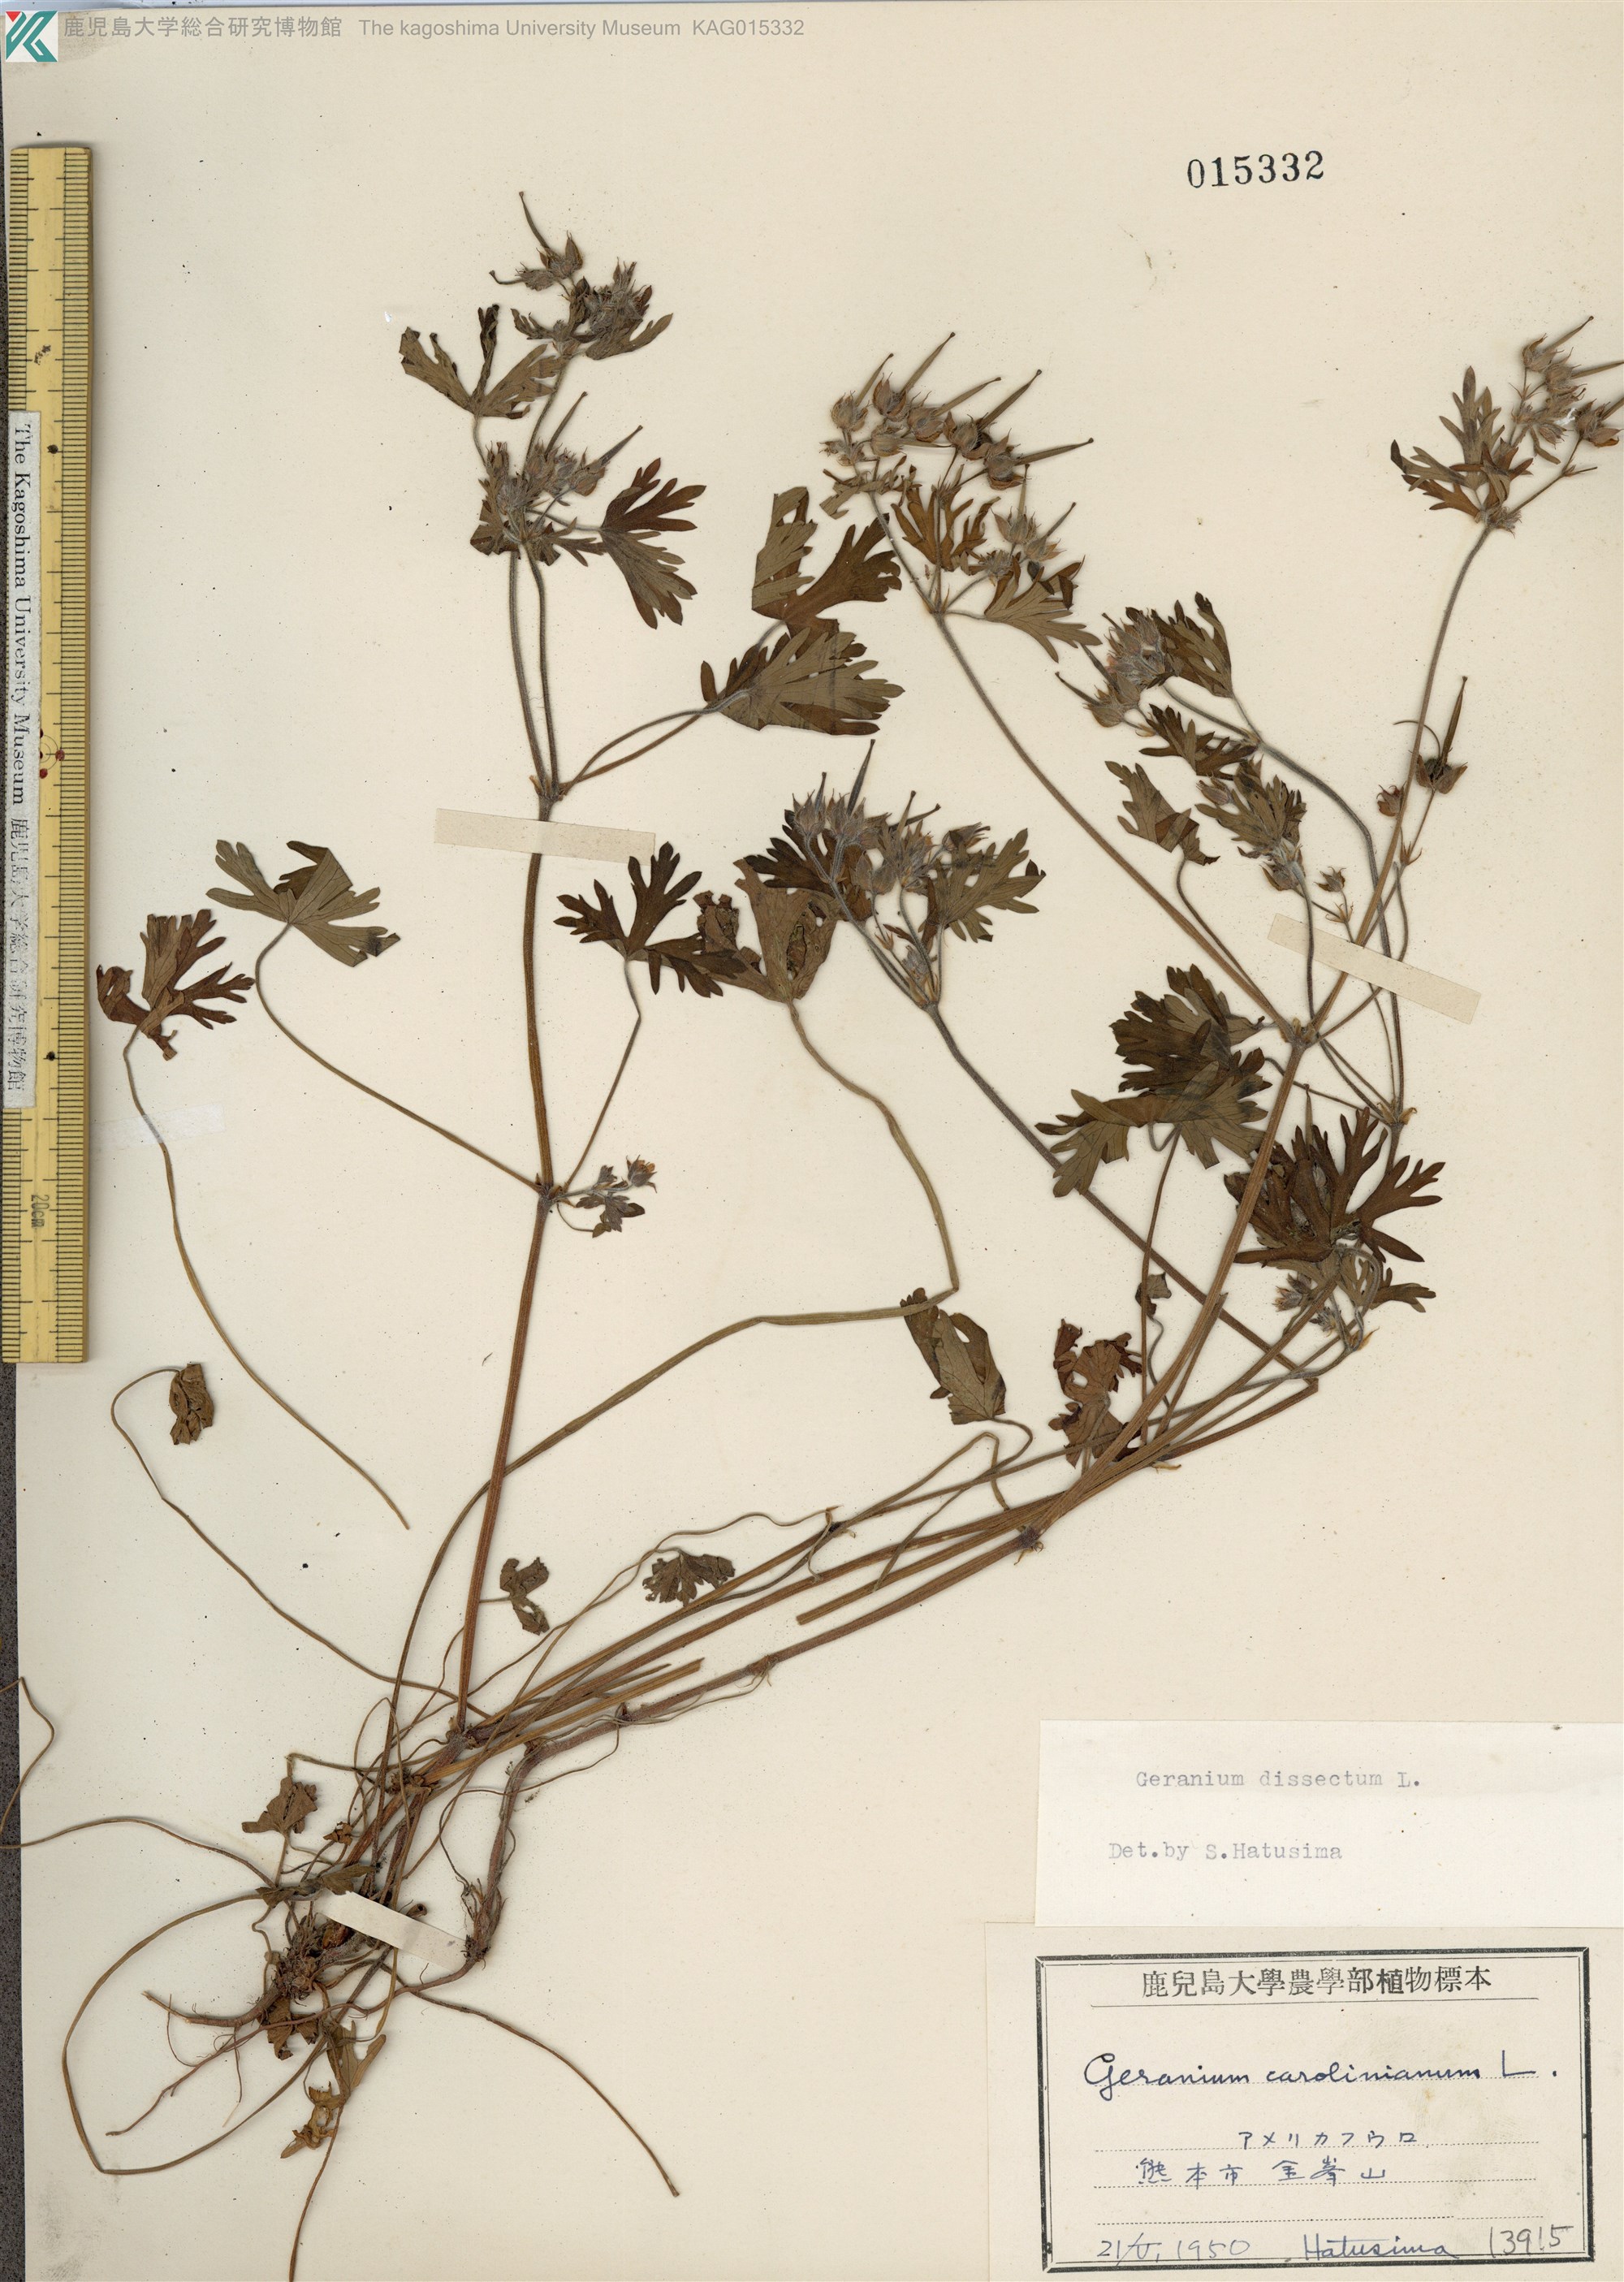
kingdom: Plantae
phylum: Tracheophyta
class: Magnoliopsida
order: Geraniales
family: Geraniaceae
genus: Geranium
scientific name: Geranium dissectum
